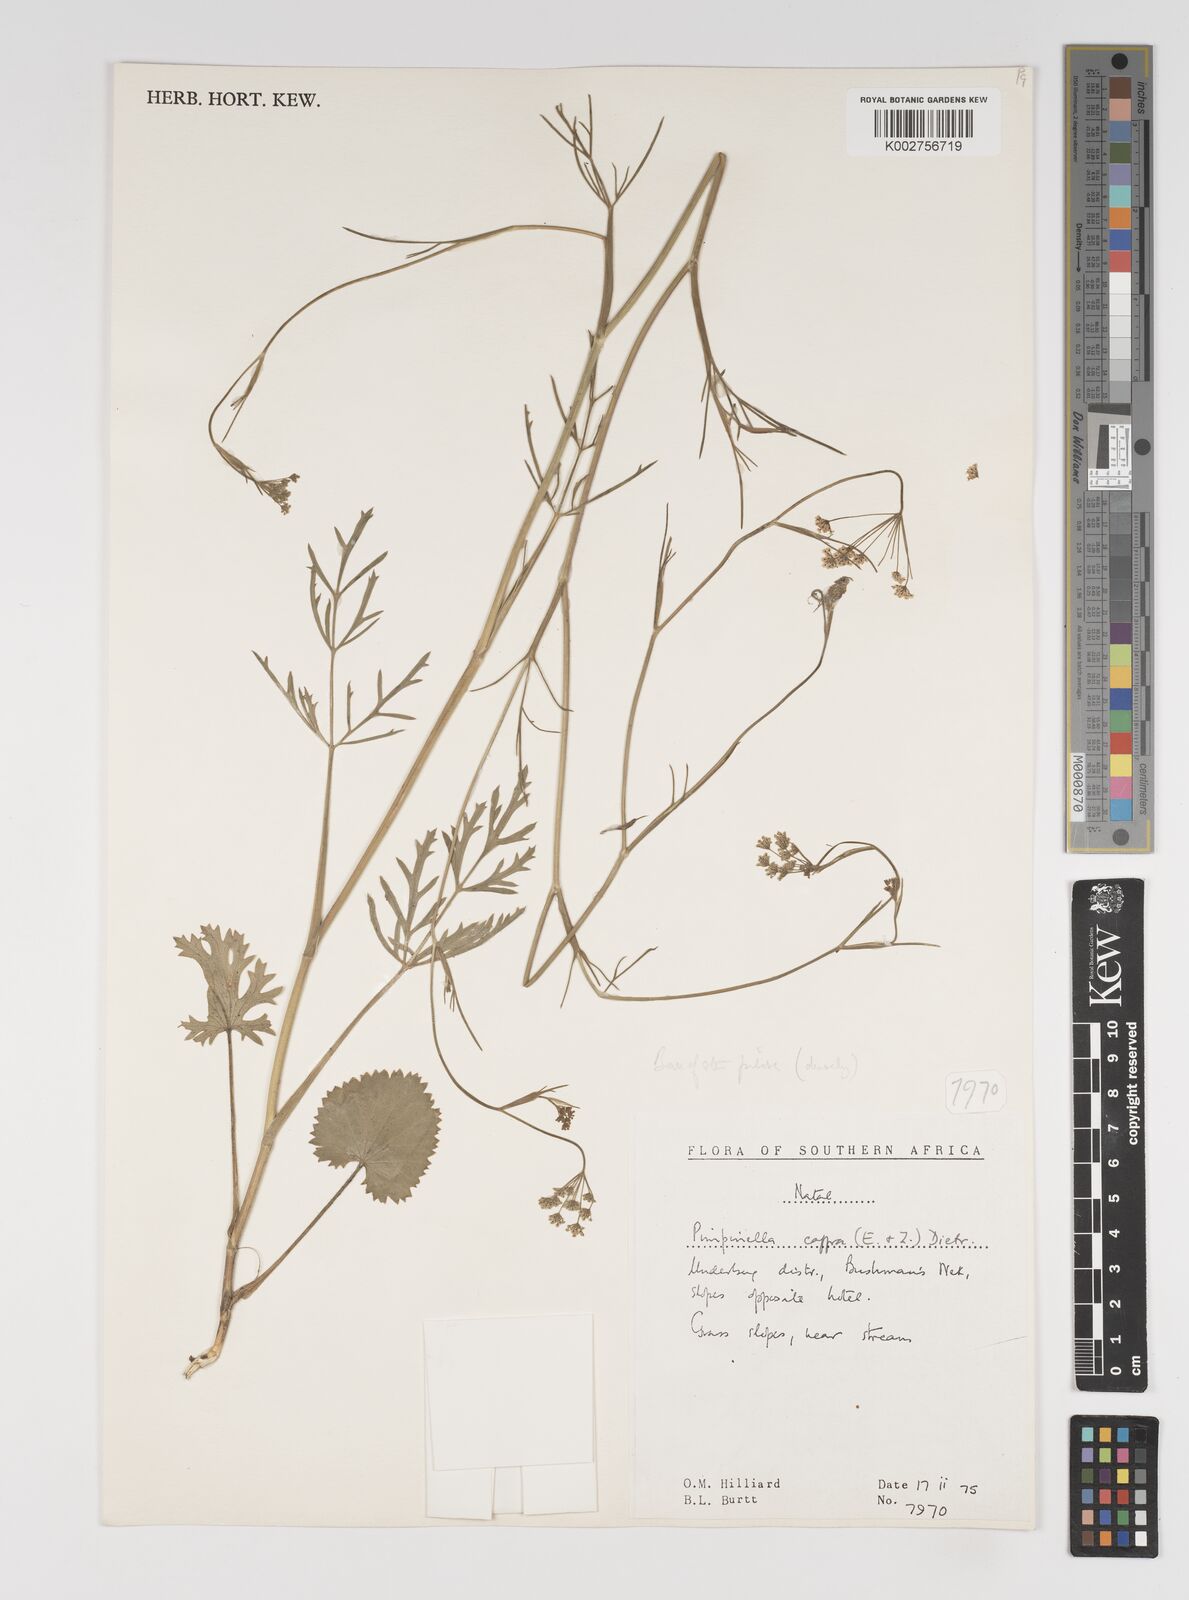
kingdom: Plantae
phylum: Tracheophyta
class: Magnoliopsida
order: Apiales
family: Apiaceae
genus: Pimpinella
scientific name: Pimpinella
